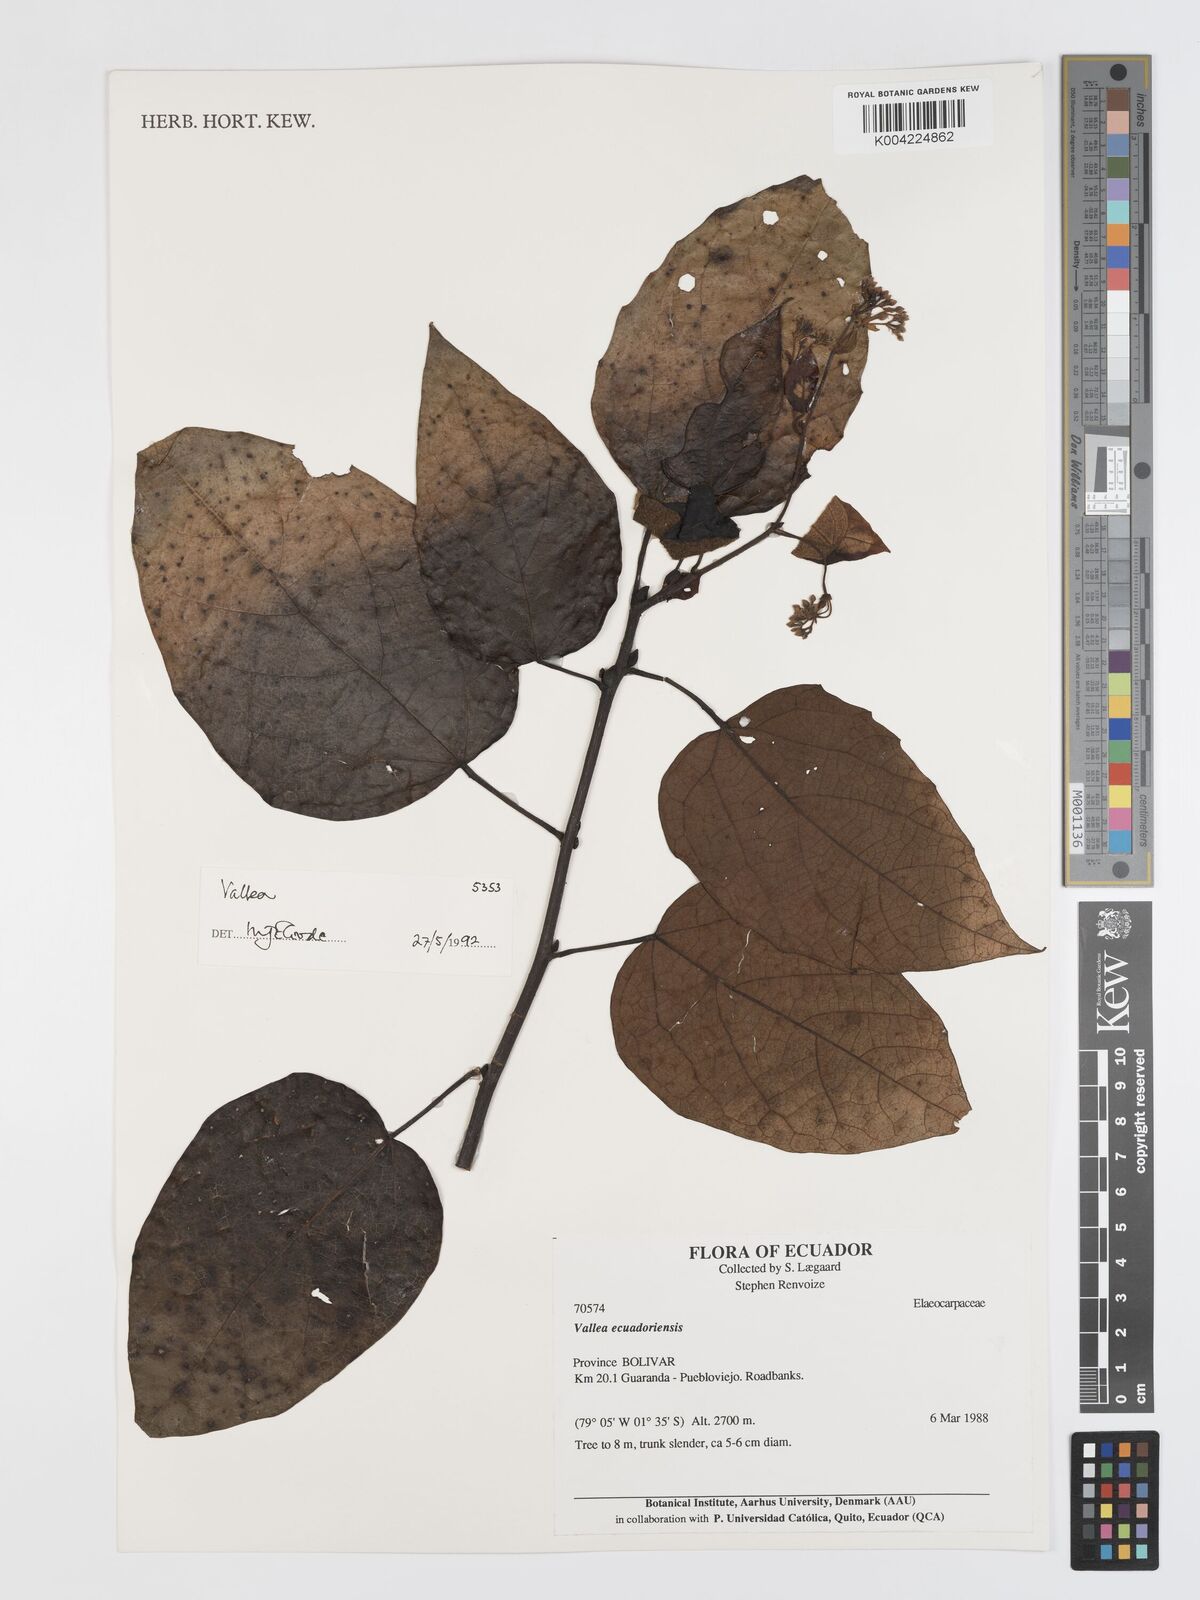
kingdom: Plantae
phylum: Tracheophyta
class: Magnoliopsida
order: Oxalidales
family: Elaeocarpaceae
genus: Vallea
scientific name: Vallea ecuadorensis
